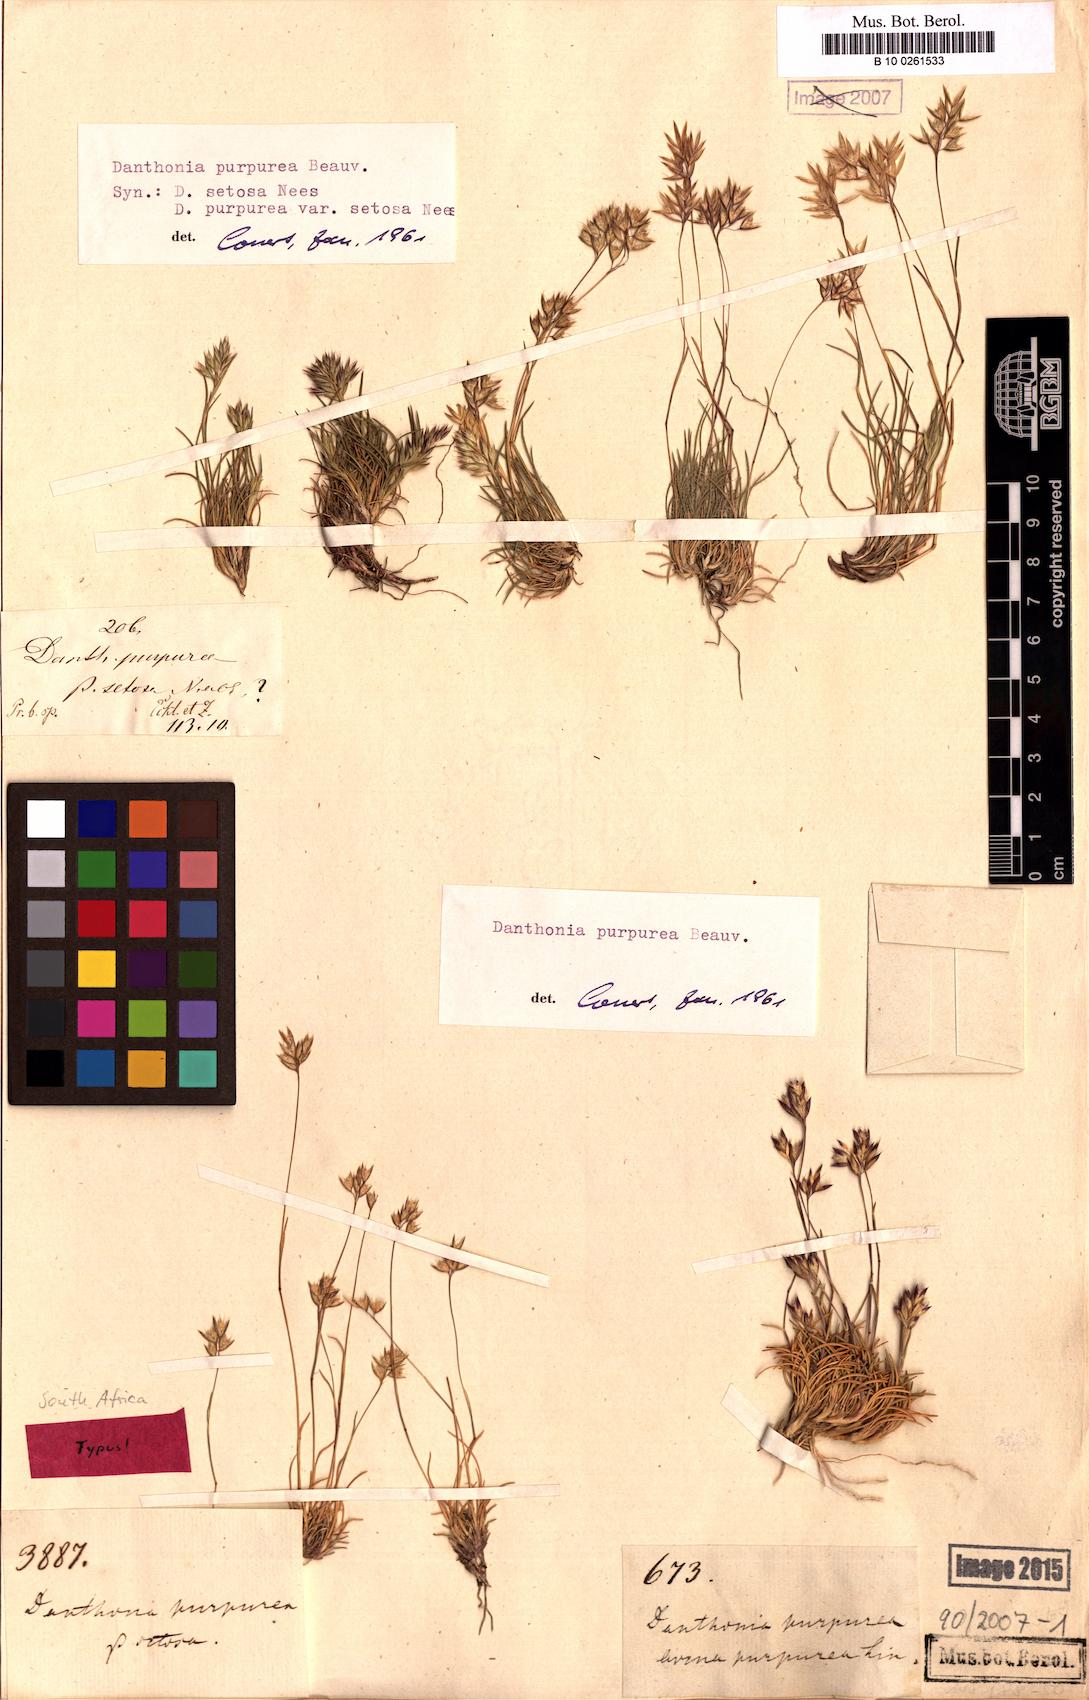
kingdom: Plantae
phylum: Tracheophyta
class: Liliopsida
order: Poales
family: Poaceae
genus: Tribolium
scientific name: Tribolium purpureum
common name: Grass
